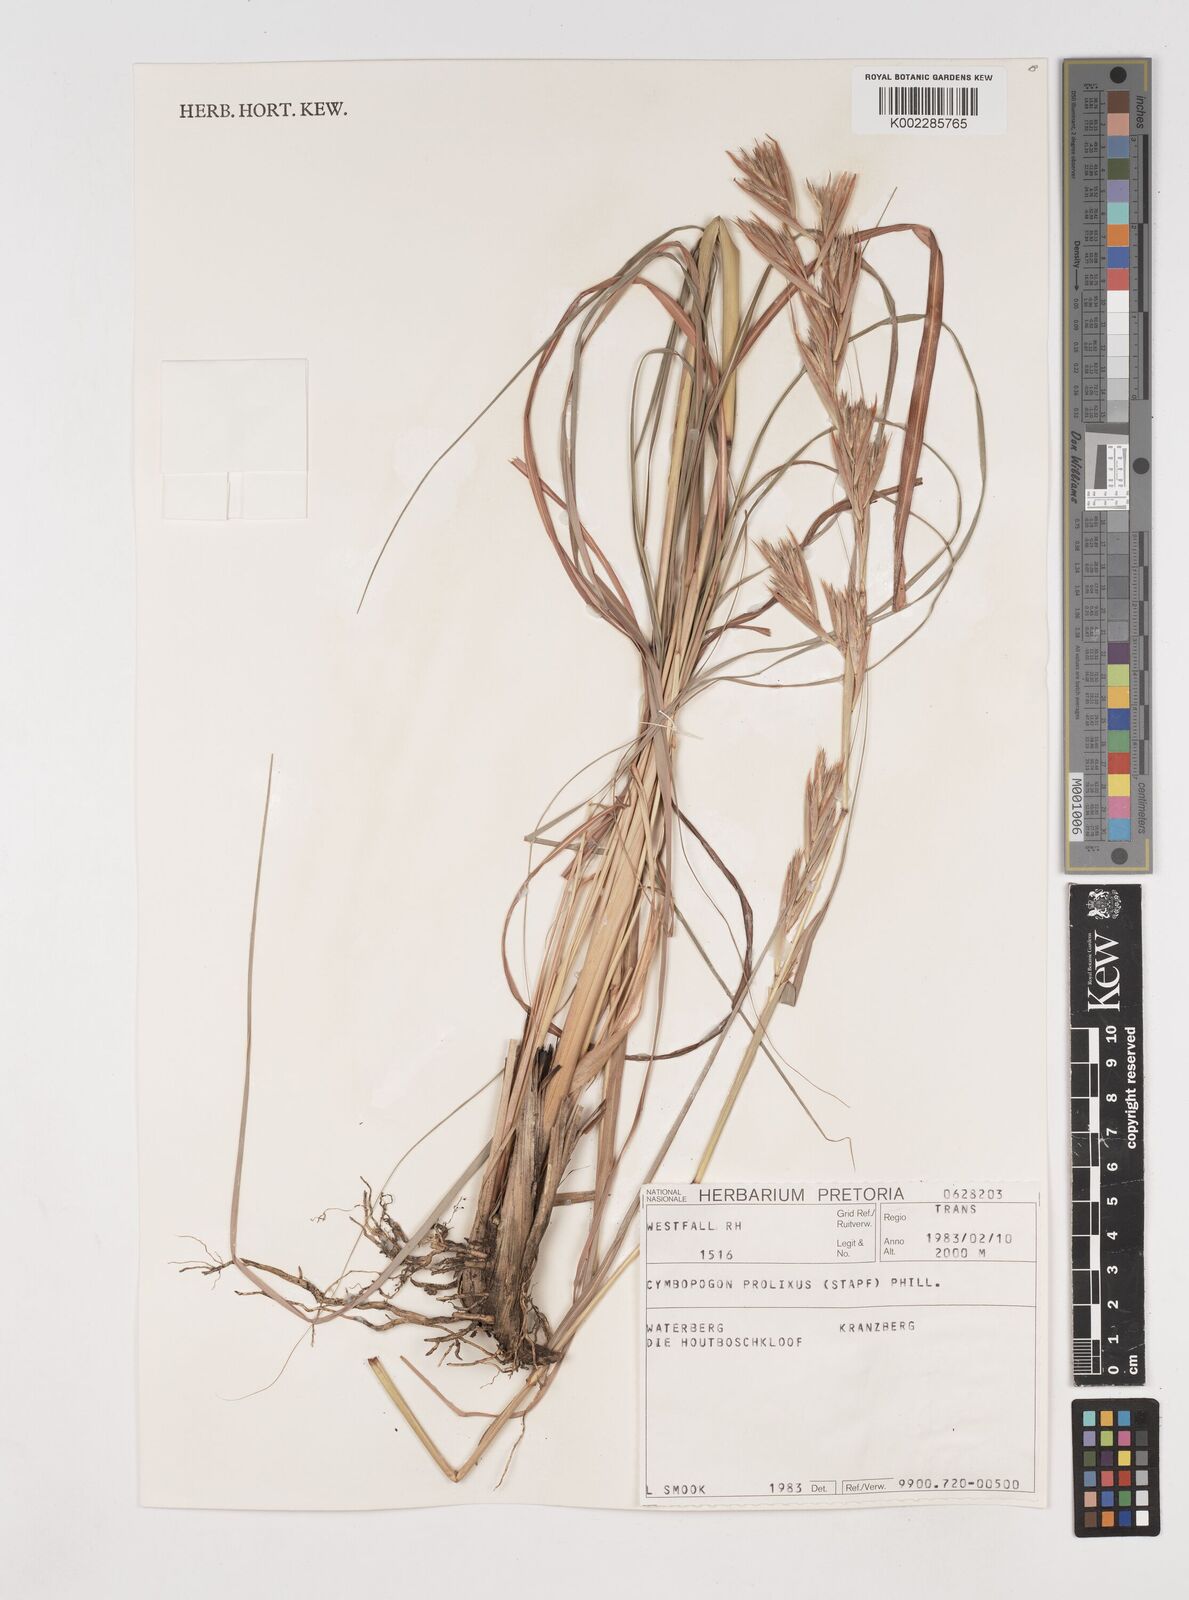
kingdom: Plantae
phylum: Tracheophyta
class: Liliopsida
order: Poales
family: Poaceae
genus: Cymbopogon
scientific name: Cymbopogon nardus
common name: Giant turpentine grass
